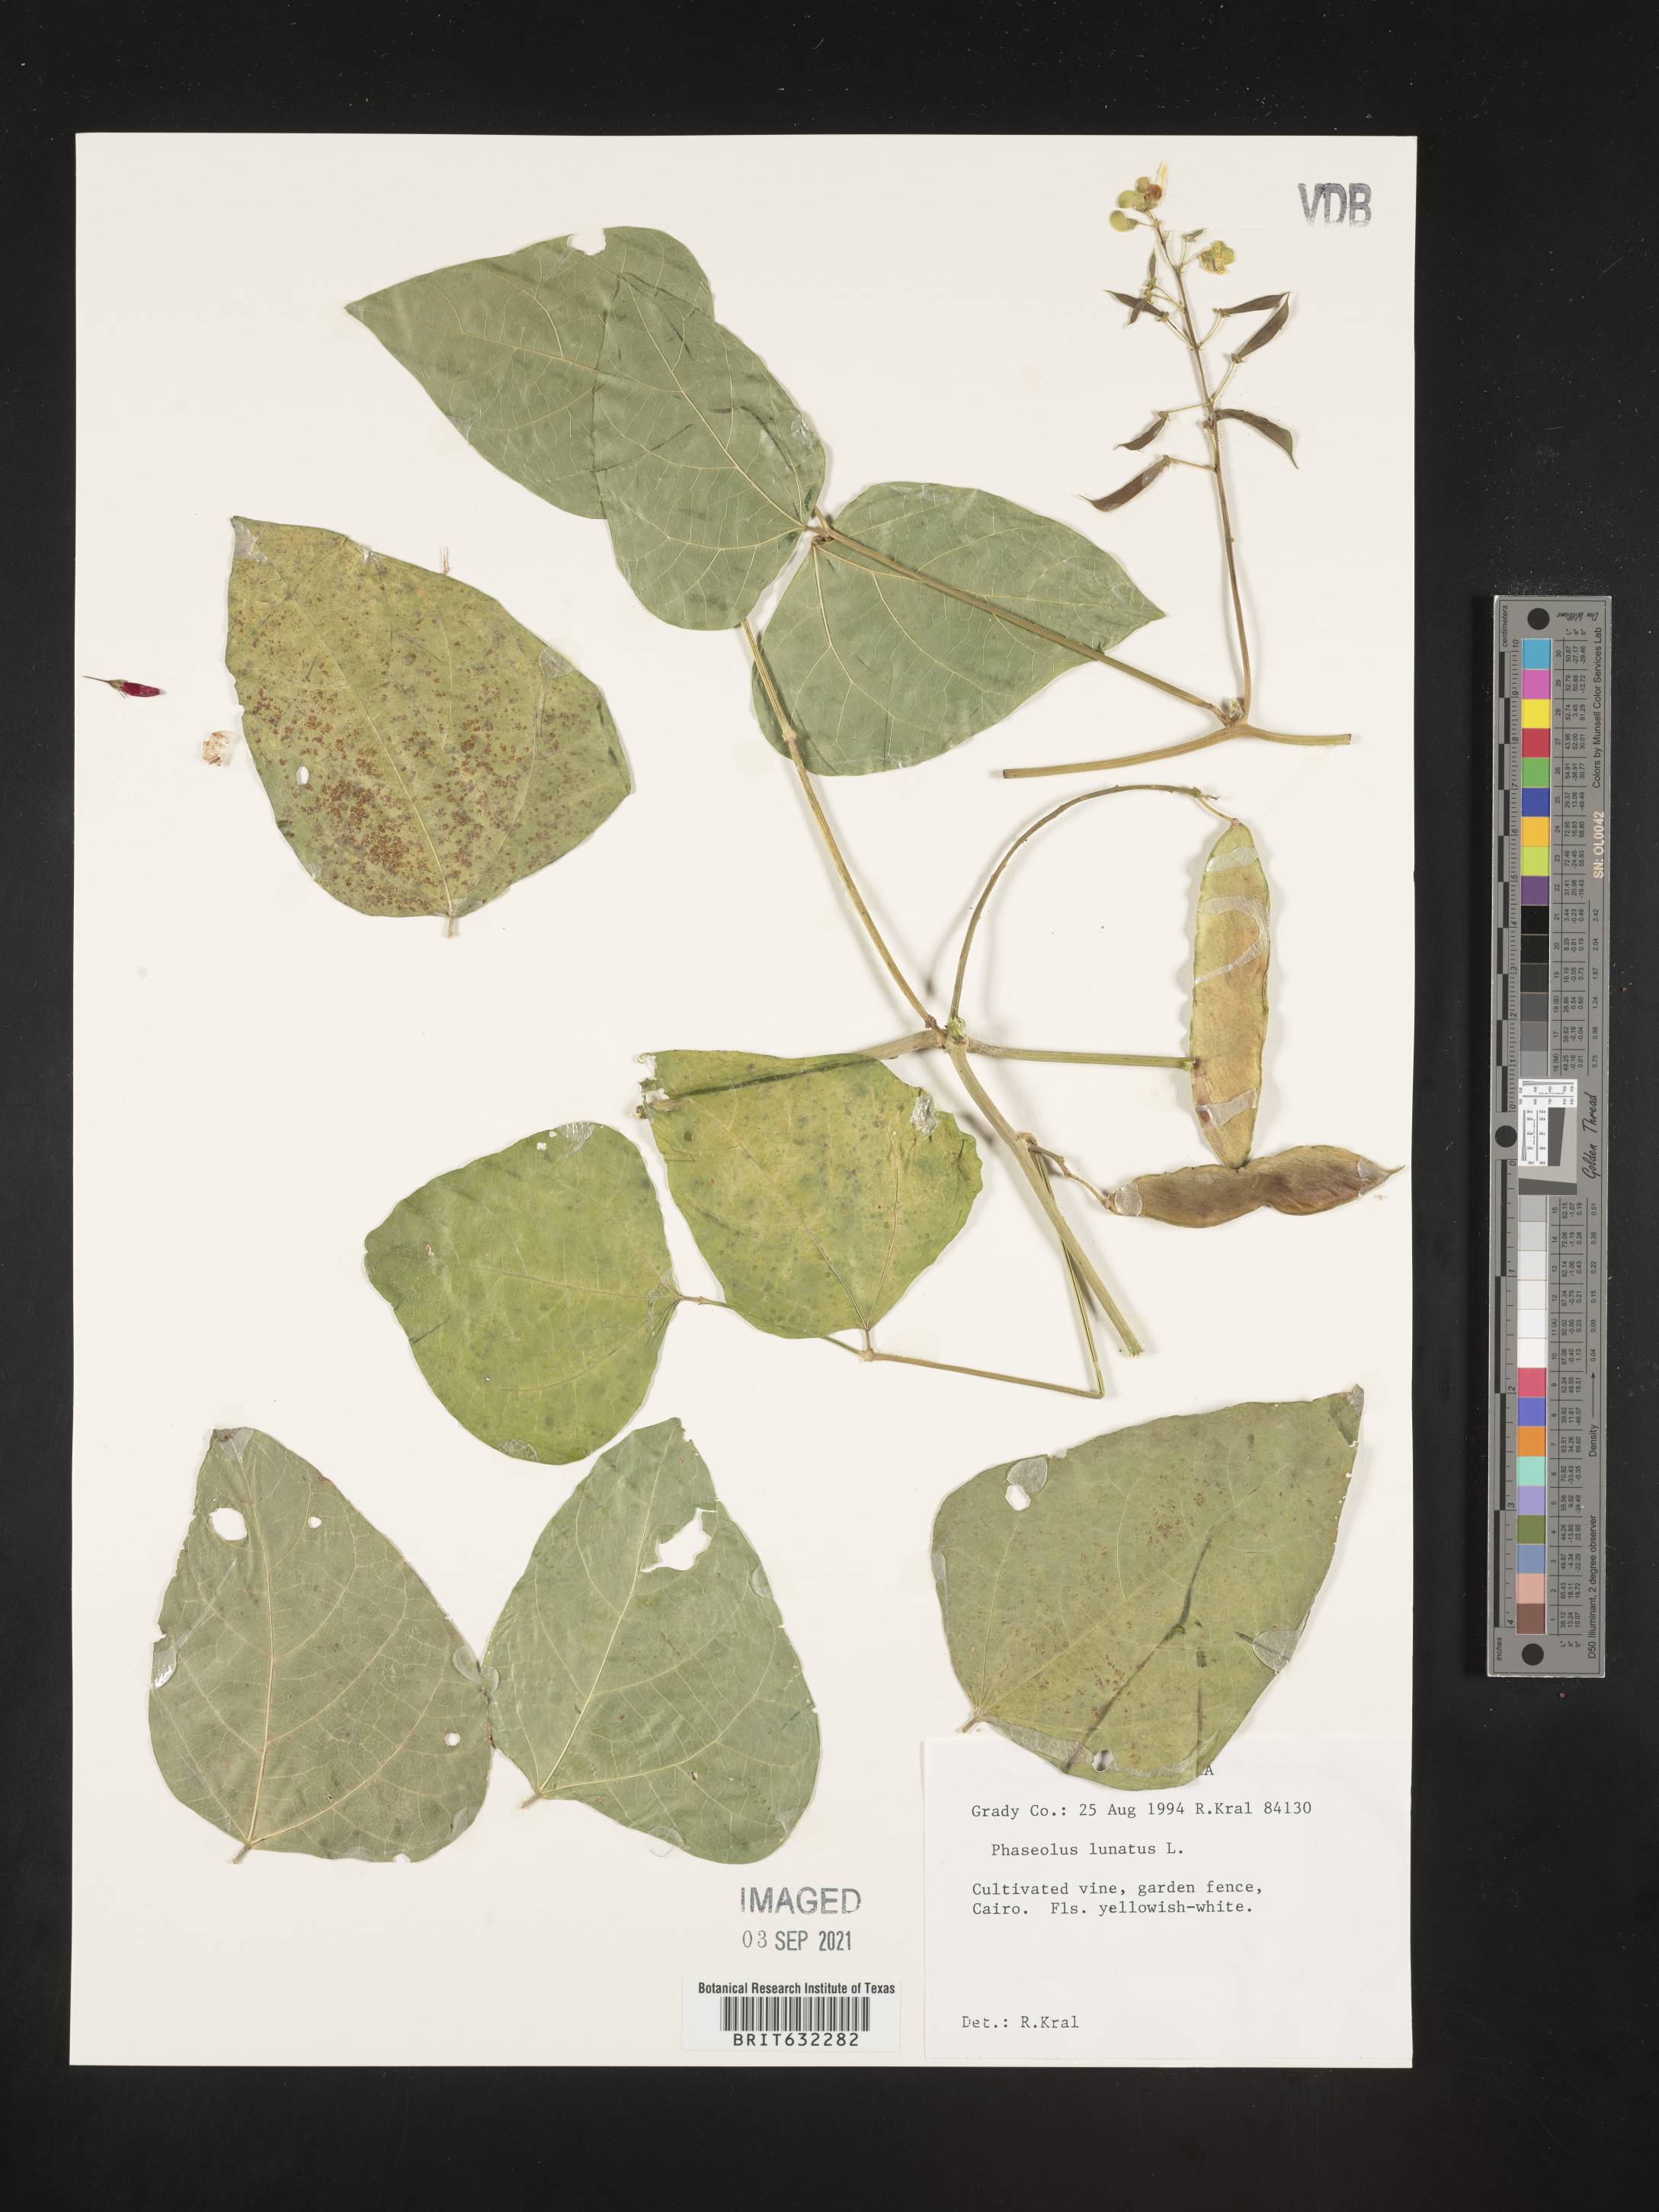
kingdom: Plantae
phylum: Tracheophyta
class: Magnoliopsida
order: Fabales
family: Fabaceae
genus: Phaseolus
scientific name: Phaseolus
